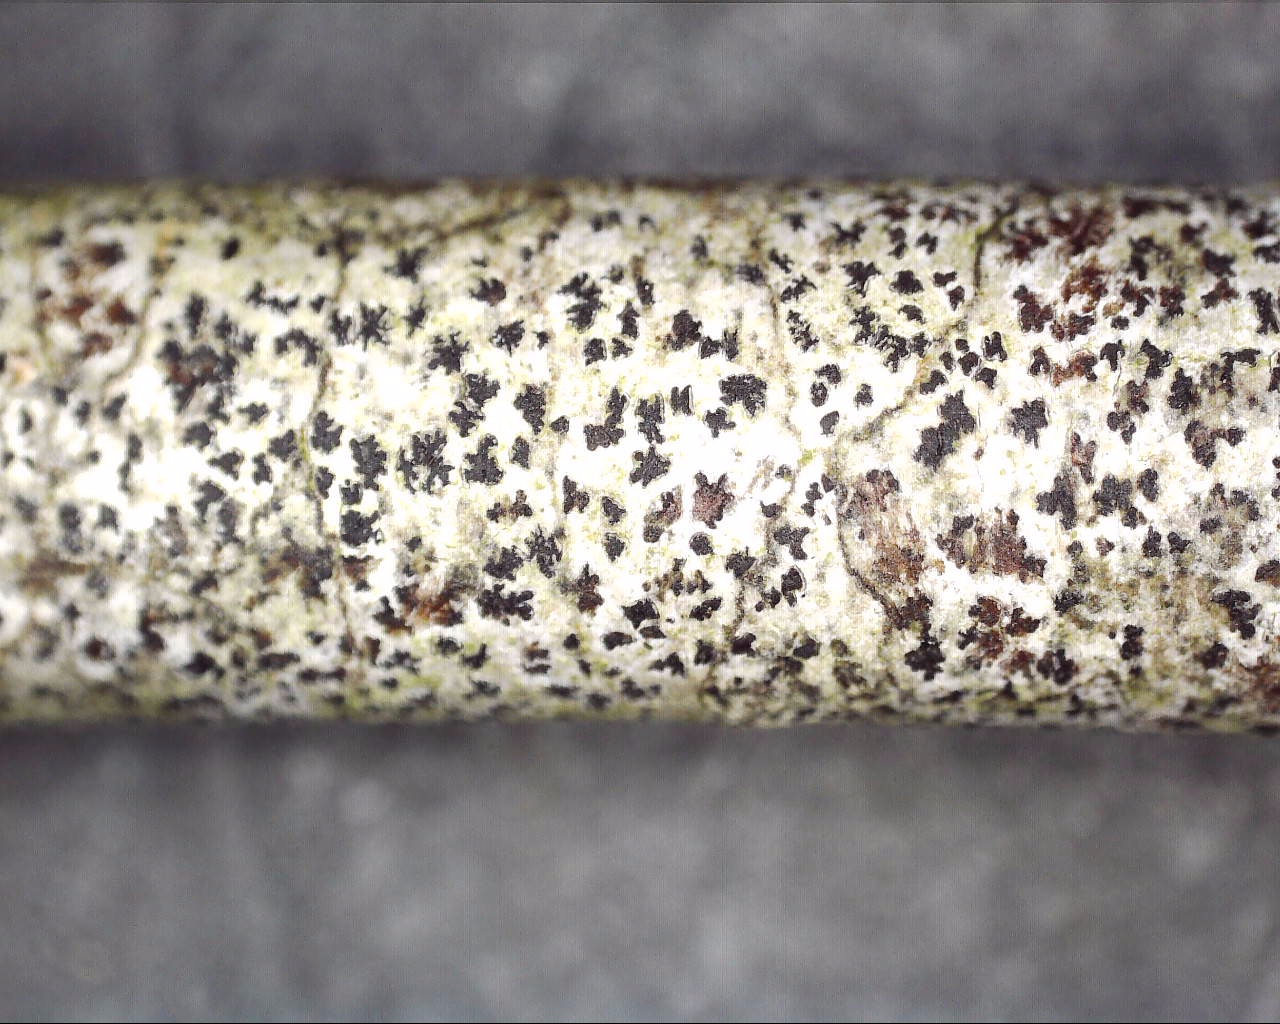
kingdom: Fungi
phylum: Ascomycota
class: Arthoniomycetes
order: Arthoniales
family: Arthoniaceae
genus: Arthonia
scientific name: Arthonia radiata
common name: stjerne-pletlav
